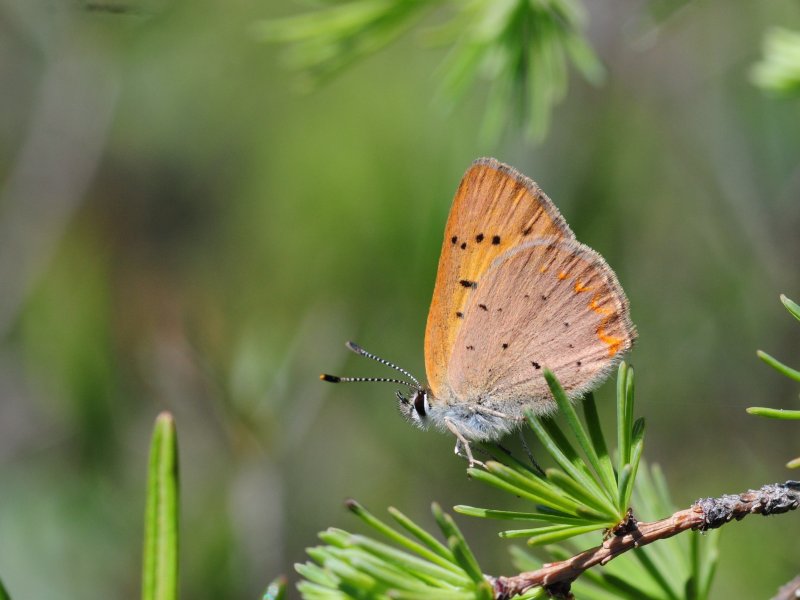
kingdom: Animalia
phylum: Arthropoda
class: Insecta
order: Lepidoptera
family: Lycaenidae
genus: Epidemia
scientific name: Epidemia dorcas
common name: Dorcas Copper
